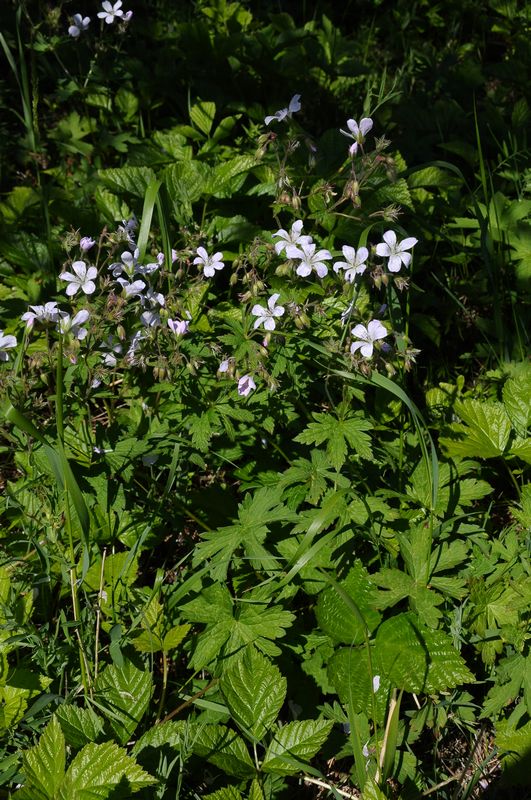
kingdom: Plantae
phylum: Tracheophyta
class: Magnoliopsida
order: Geraniales
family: Geraniaceae
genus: Geranium
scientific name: Geranium sylvaticum
